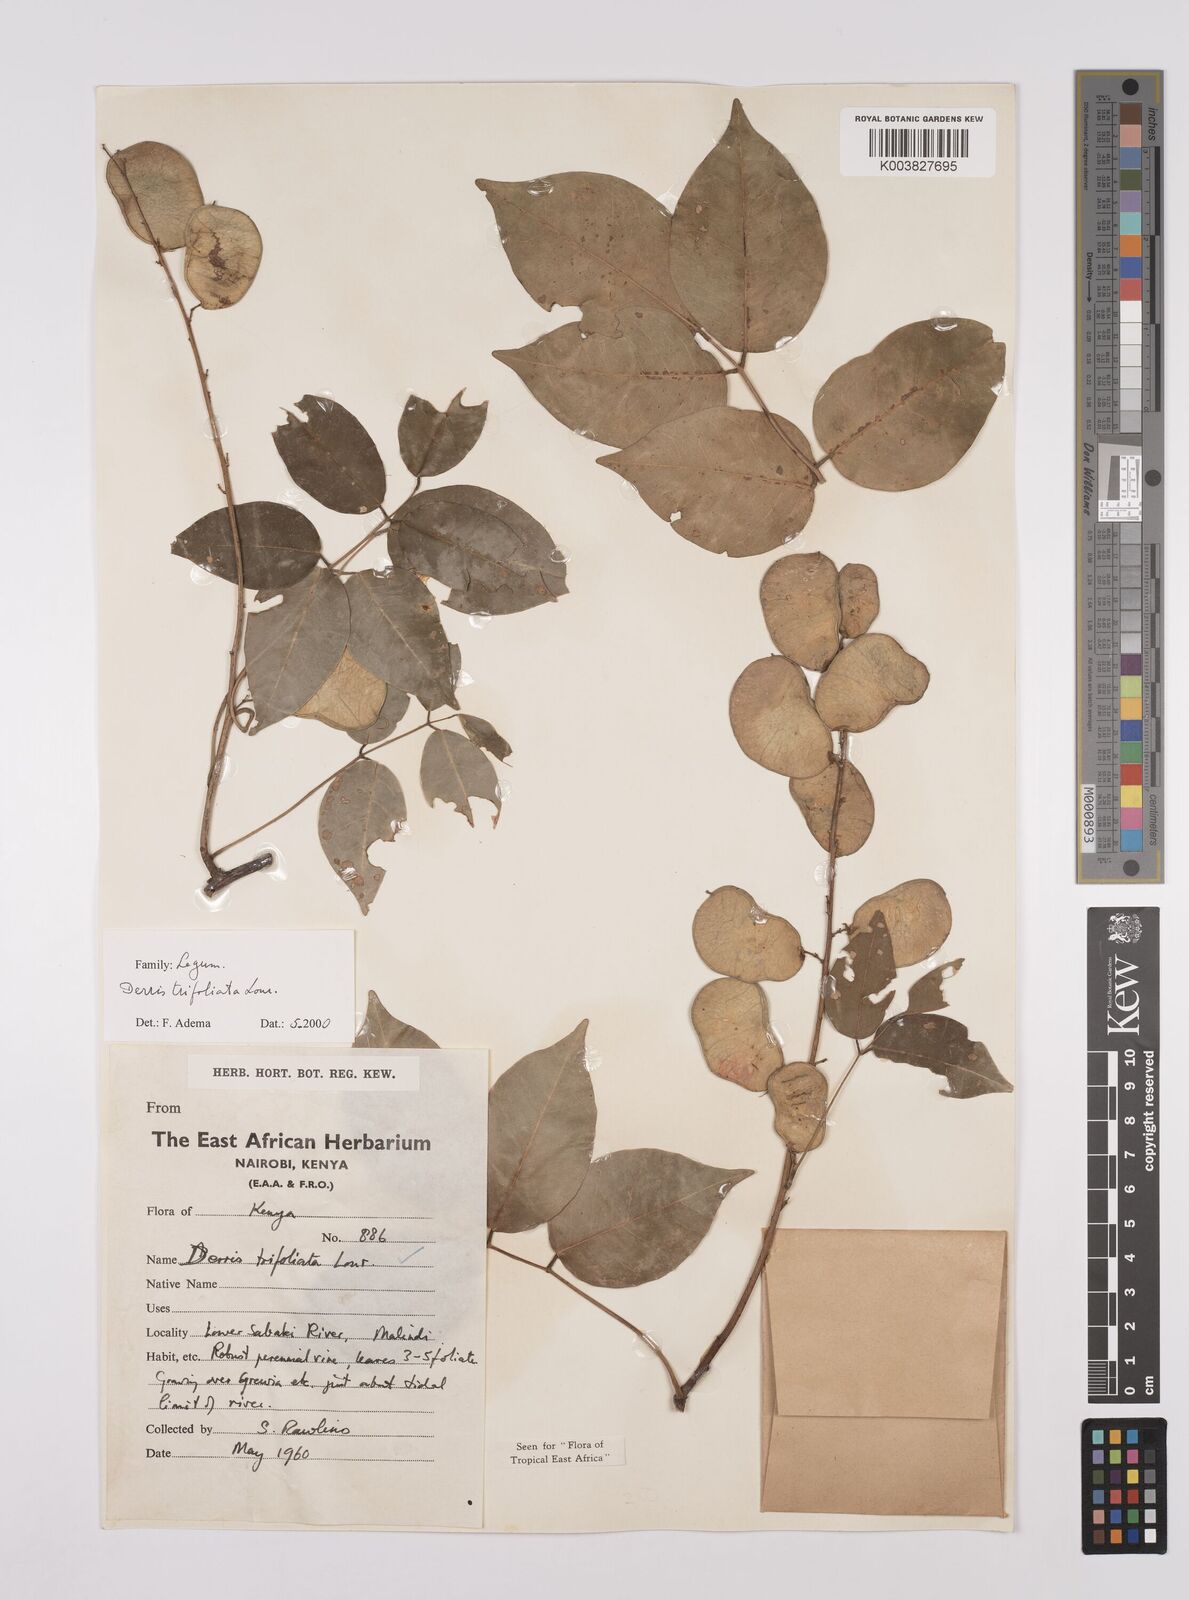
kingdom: Plantae
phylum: Tracheophyta
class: Magnoliopsida
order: Fabales
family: Fabaceae
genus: Derris
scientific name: Derris trifoliata
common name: Three-leaf derris
